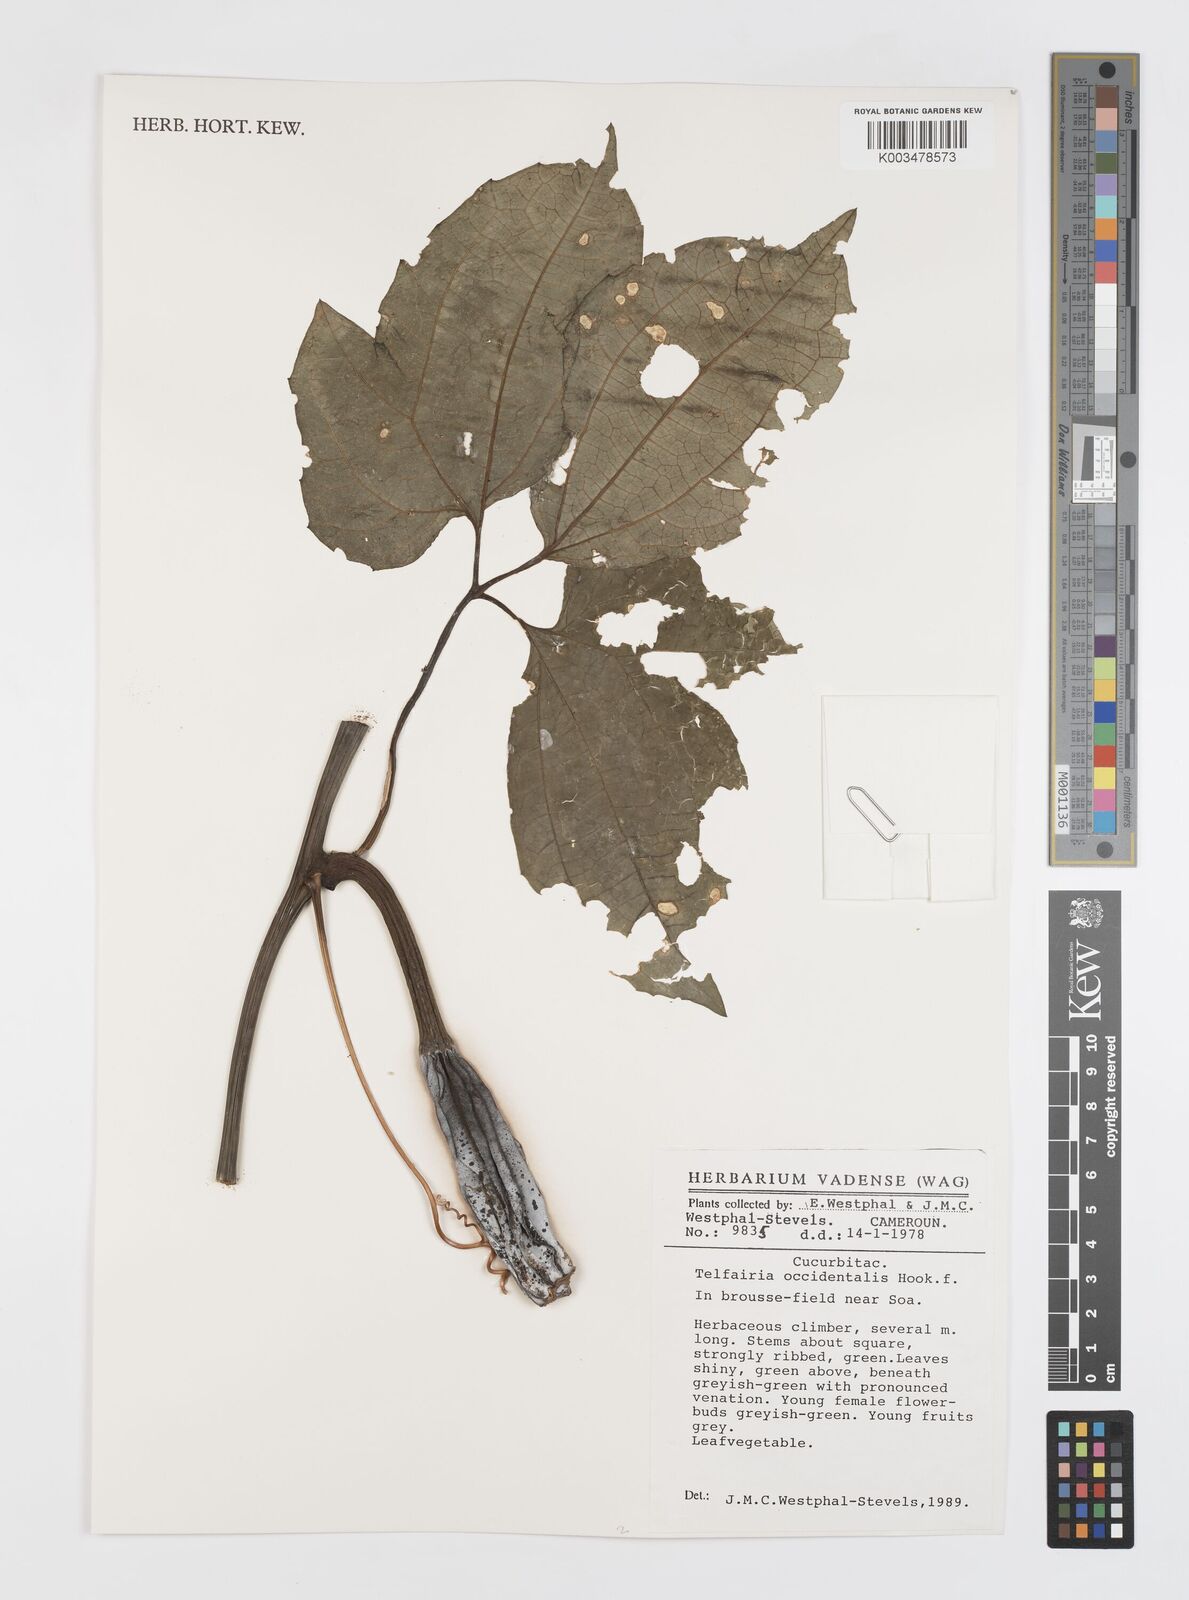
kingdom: Plantae
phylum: Tracheophyta
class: Magnoliopsida
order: Cucurbitales
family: Cucurbitaceae
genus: Telfairia
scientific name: Telfairia occidentalis
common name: Oysternut
